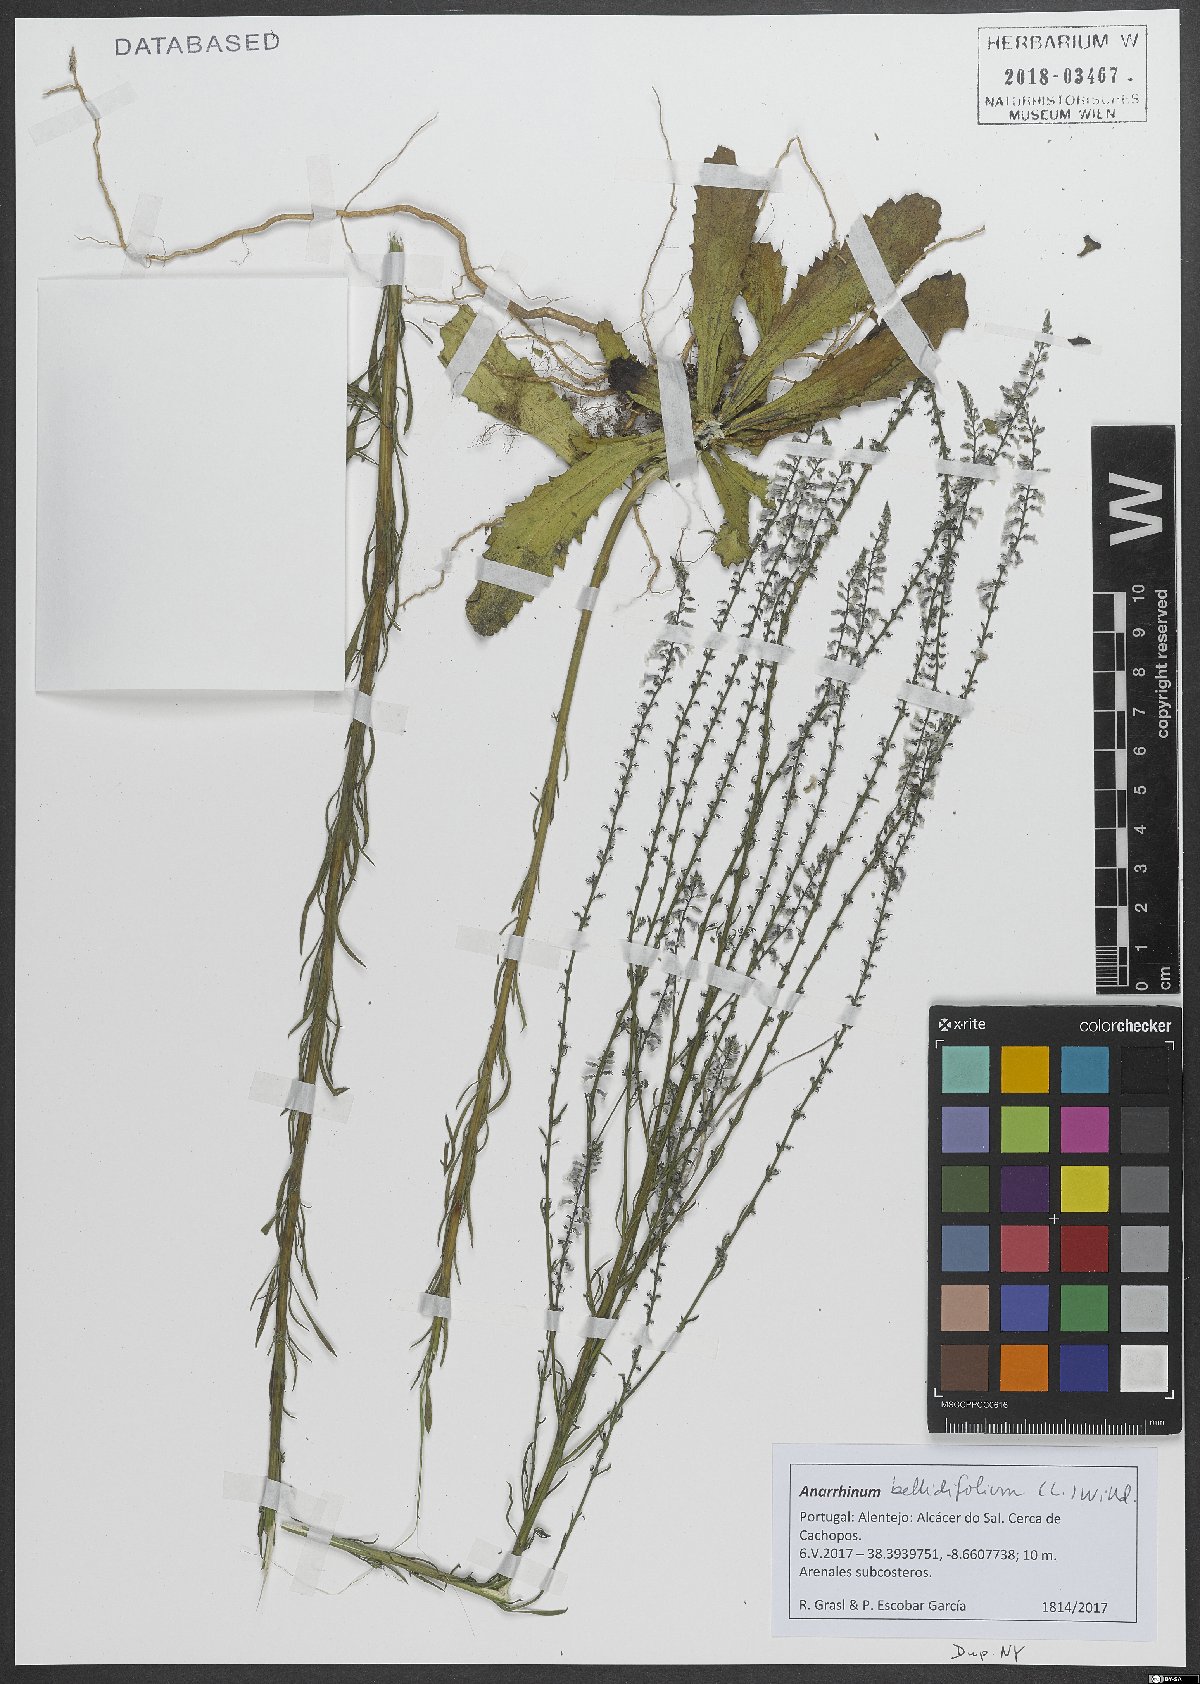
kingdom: Plantae
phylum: Tracheophyta
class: Magnoliopsida
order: Lamiales
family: Plantaginaceae
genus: Anarrhinum
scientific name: Anarrhinum bellidifolium
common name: Daisy-leaved toadflax
